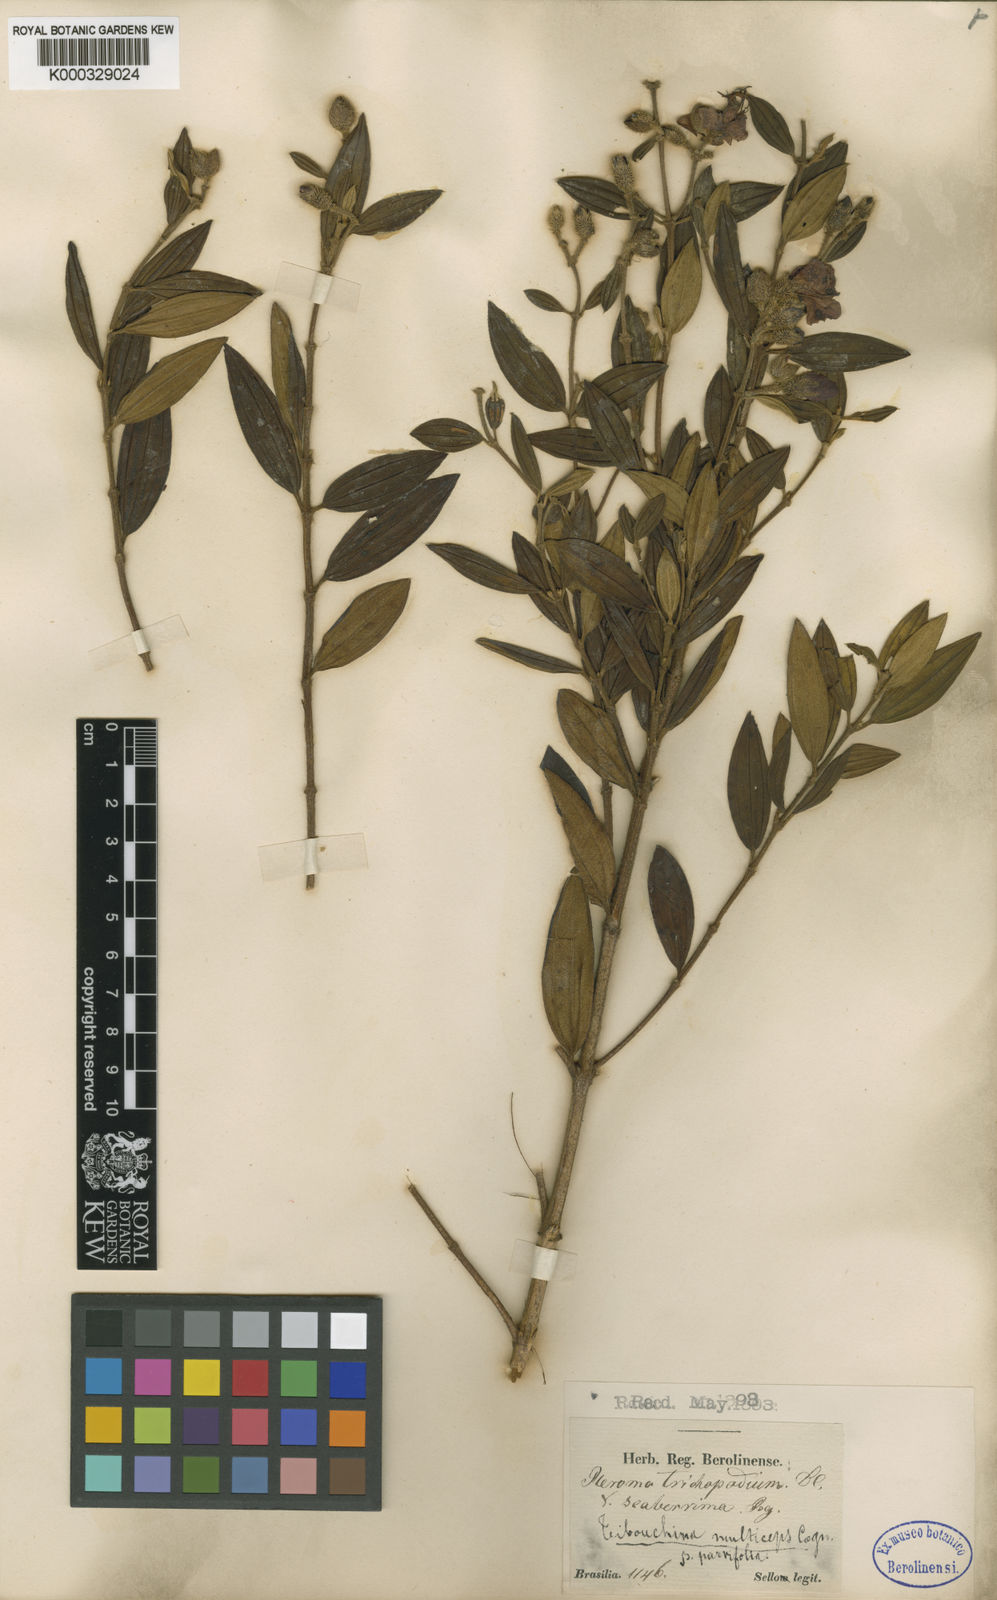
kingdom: Plantae
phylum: Tracheophyta
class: Magnoliopsida
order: Myrtales
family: Melastomataceae
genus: Pleroma
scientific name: Pleroma trichopodum
